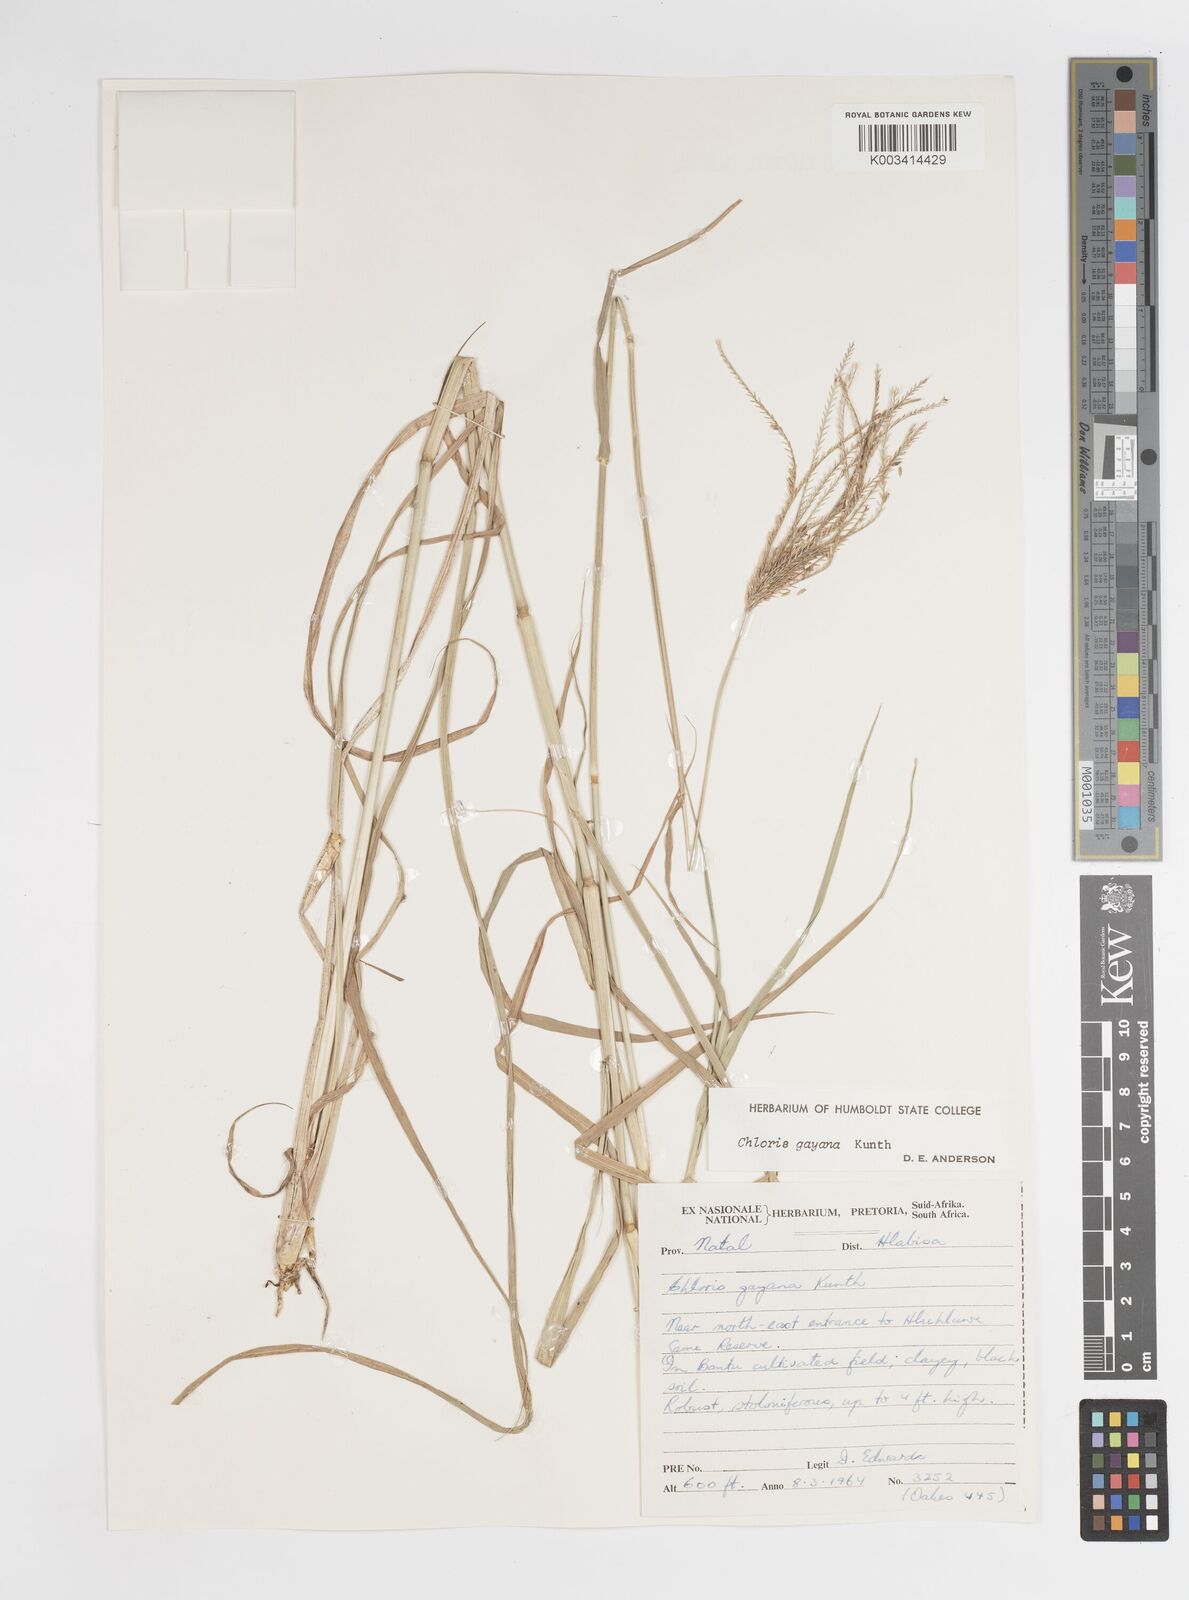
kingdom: Plantae
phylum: Tracheophyta
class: Liliopsida
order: Poales
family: Poaceae
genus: Chloris
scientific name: Chloris gayana
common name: Rhodes grass
